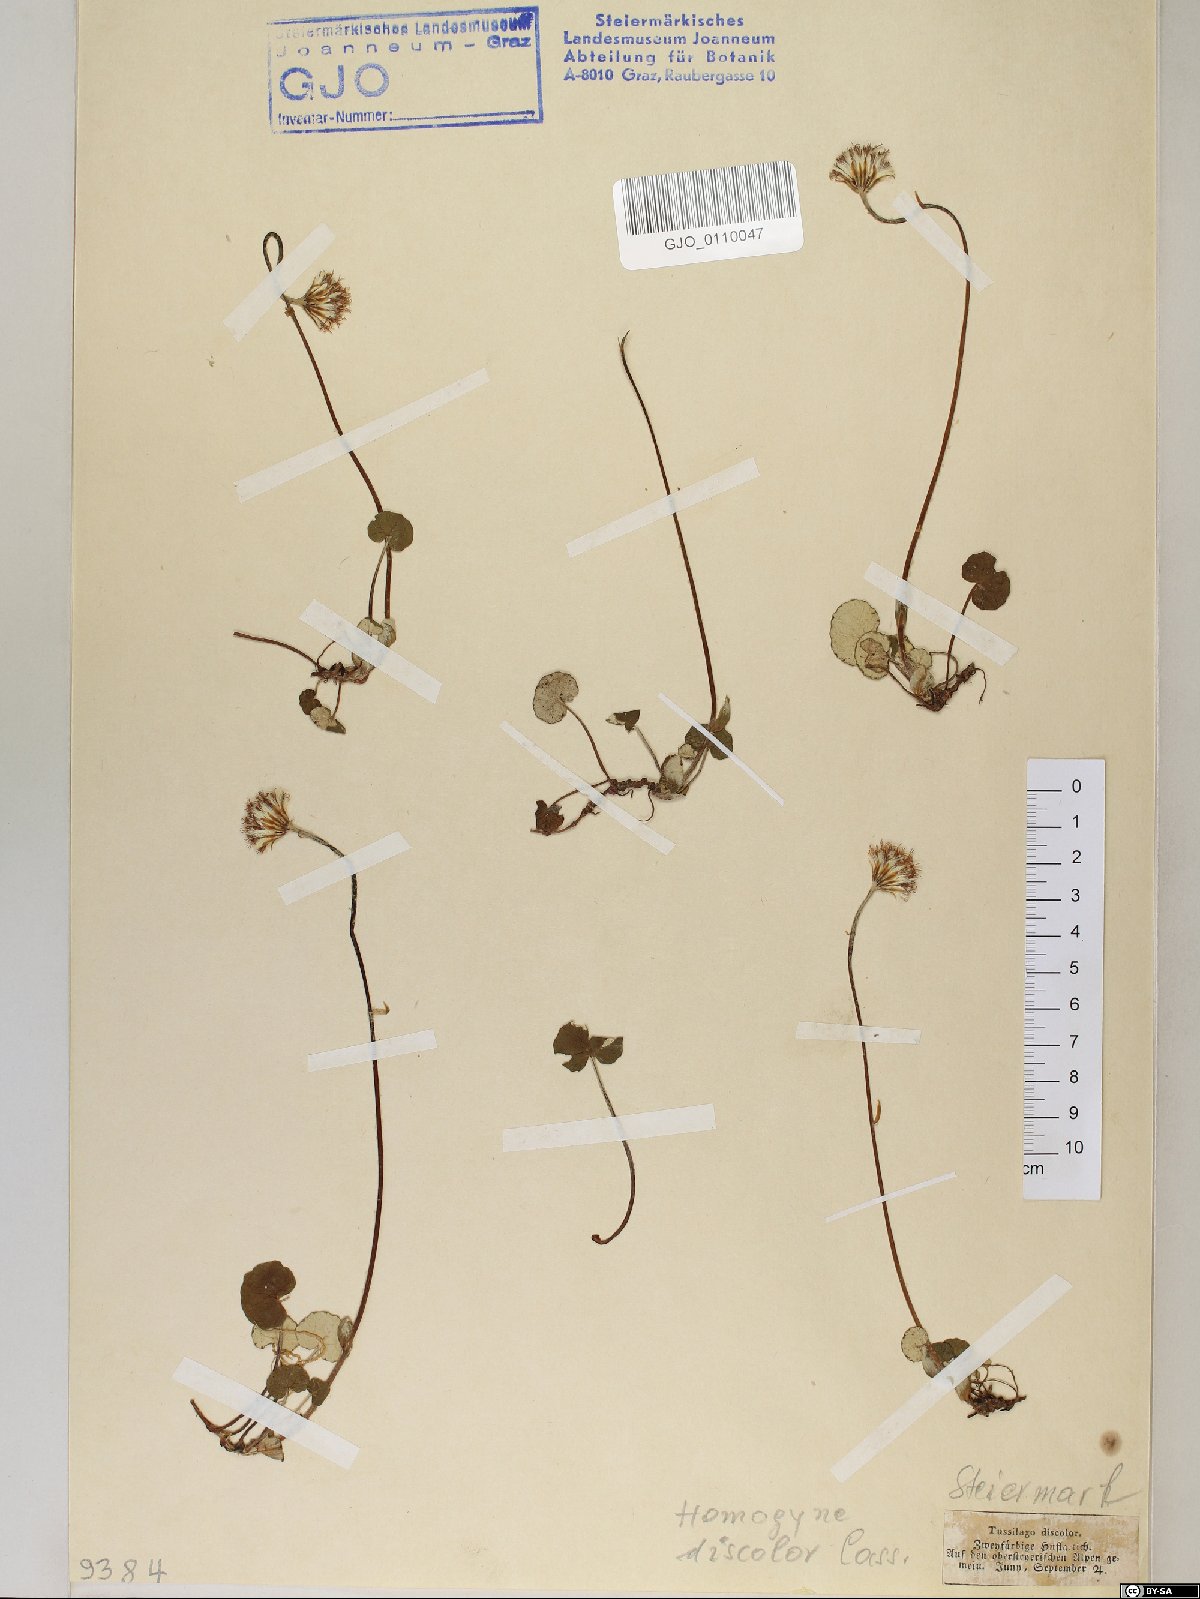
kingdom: Plantae
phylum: Tracheophyta
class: Magnoliopsida
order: Asterales
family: Asteraceae
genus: Homogyne
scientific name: Homogyne discolor
